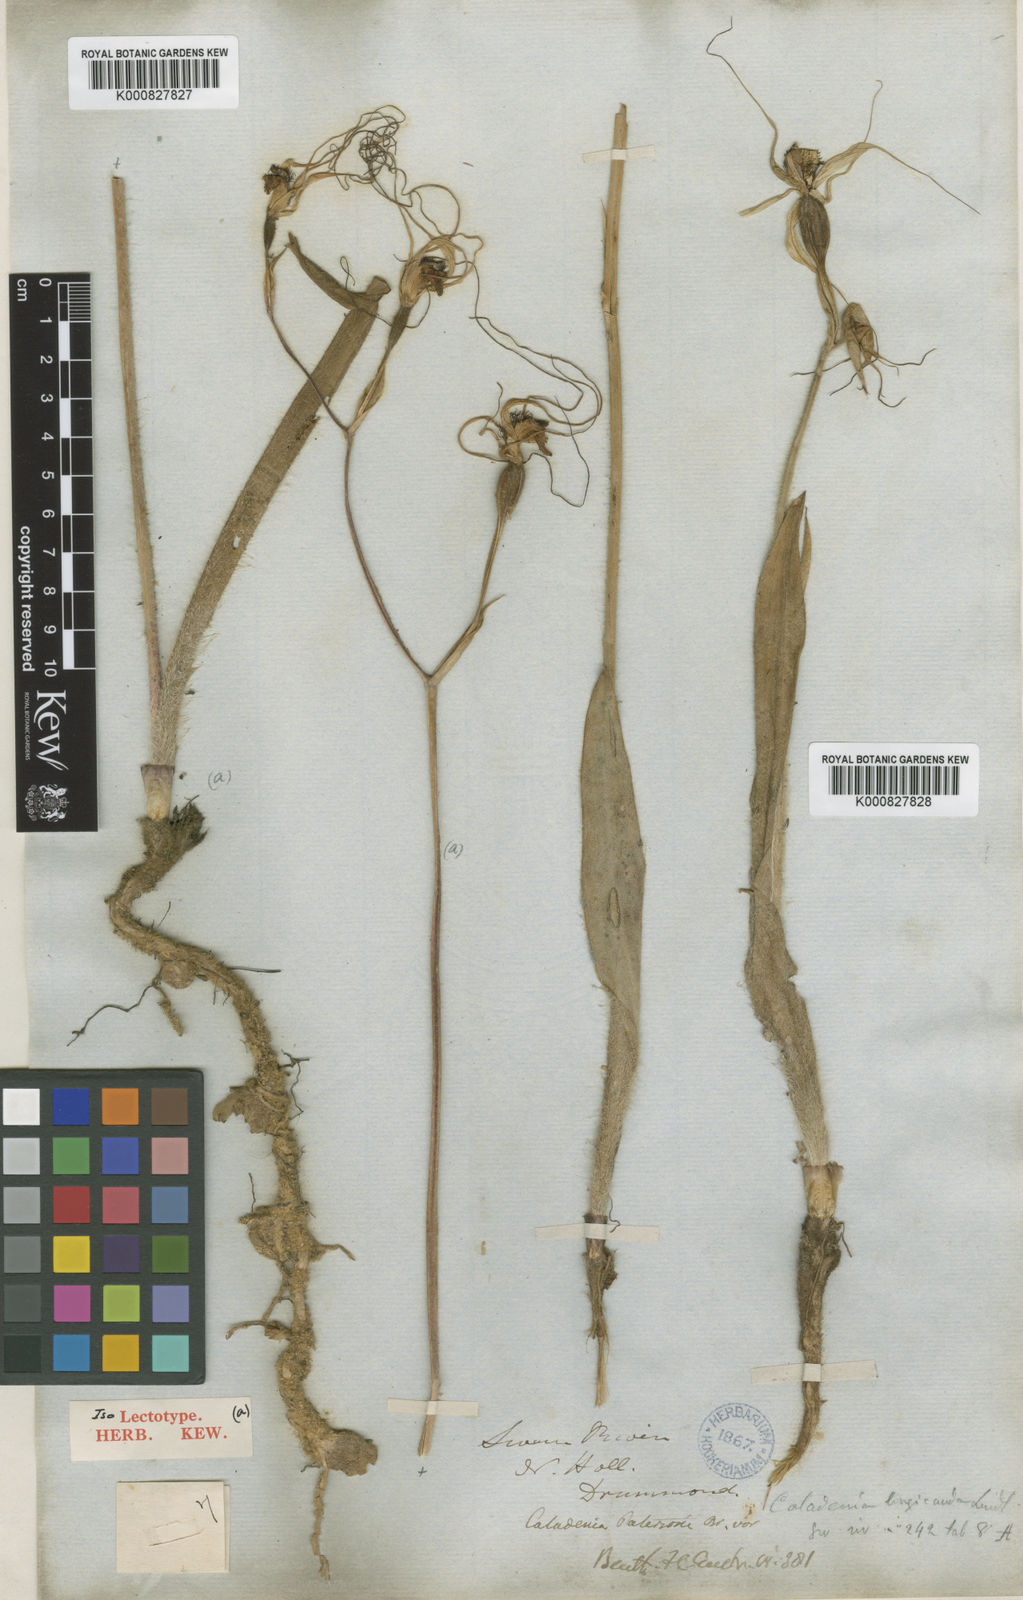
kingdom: Plantae
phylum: Tracheophyta
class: Liliopsida
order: Asparagales
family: Orchidaceae
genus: Caladenia
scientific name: Caladenia longicauda
